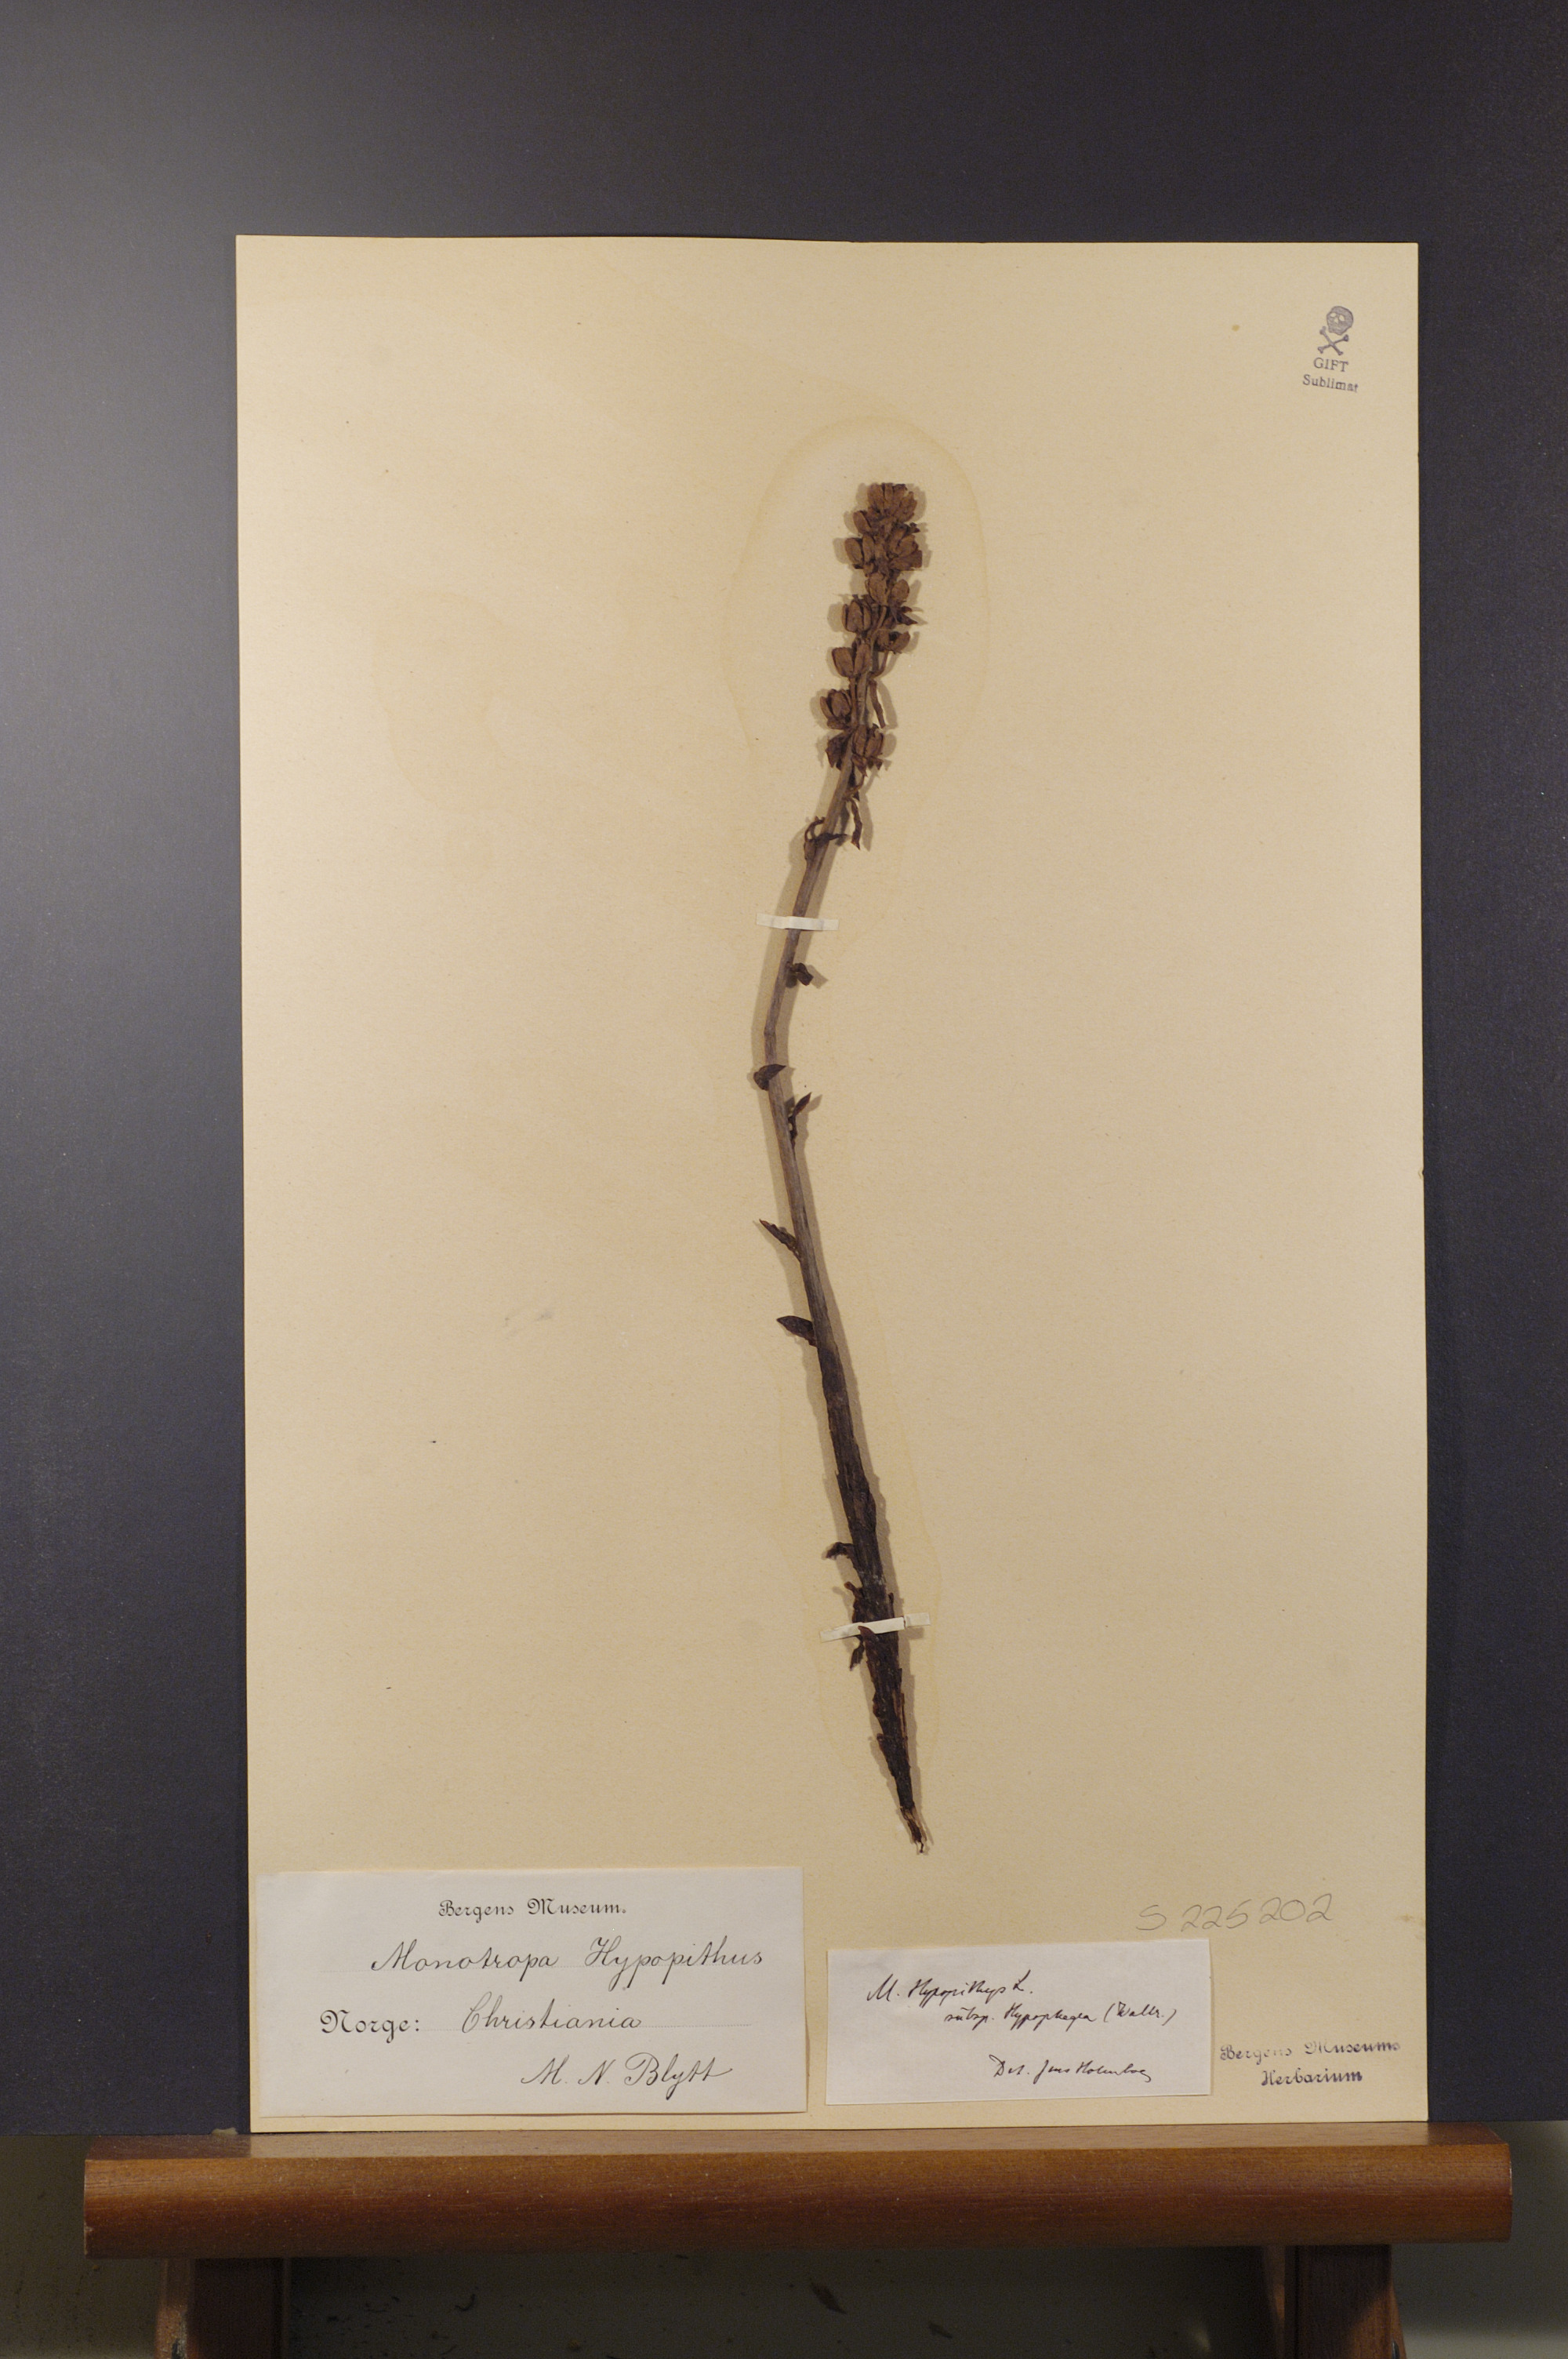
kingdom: Plantae
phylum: Tracheophyta
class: Magnoliopsida
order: Ericales
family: Ericaceae
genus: Hypopitys
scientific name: Hypopitys hypophegea
